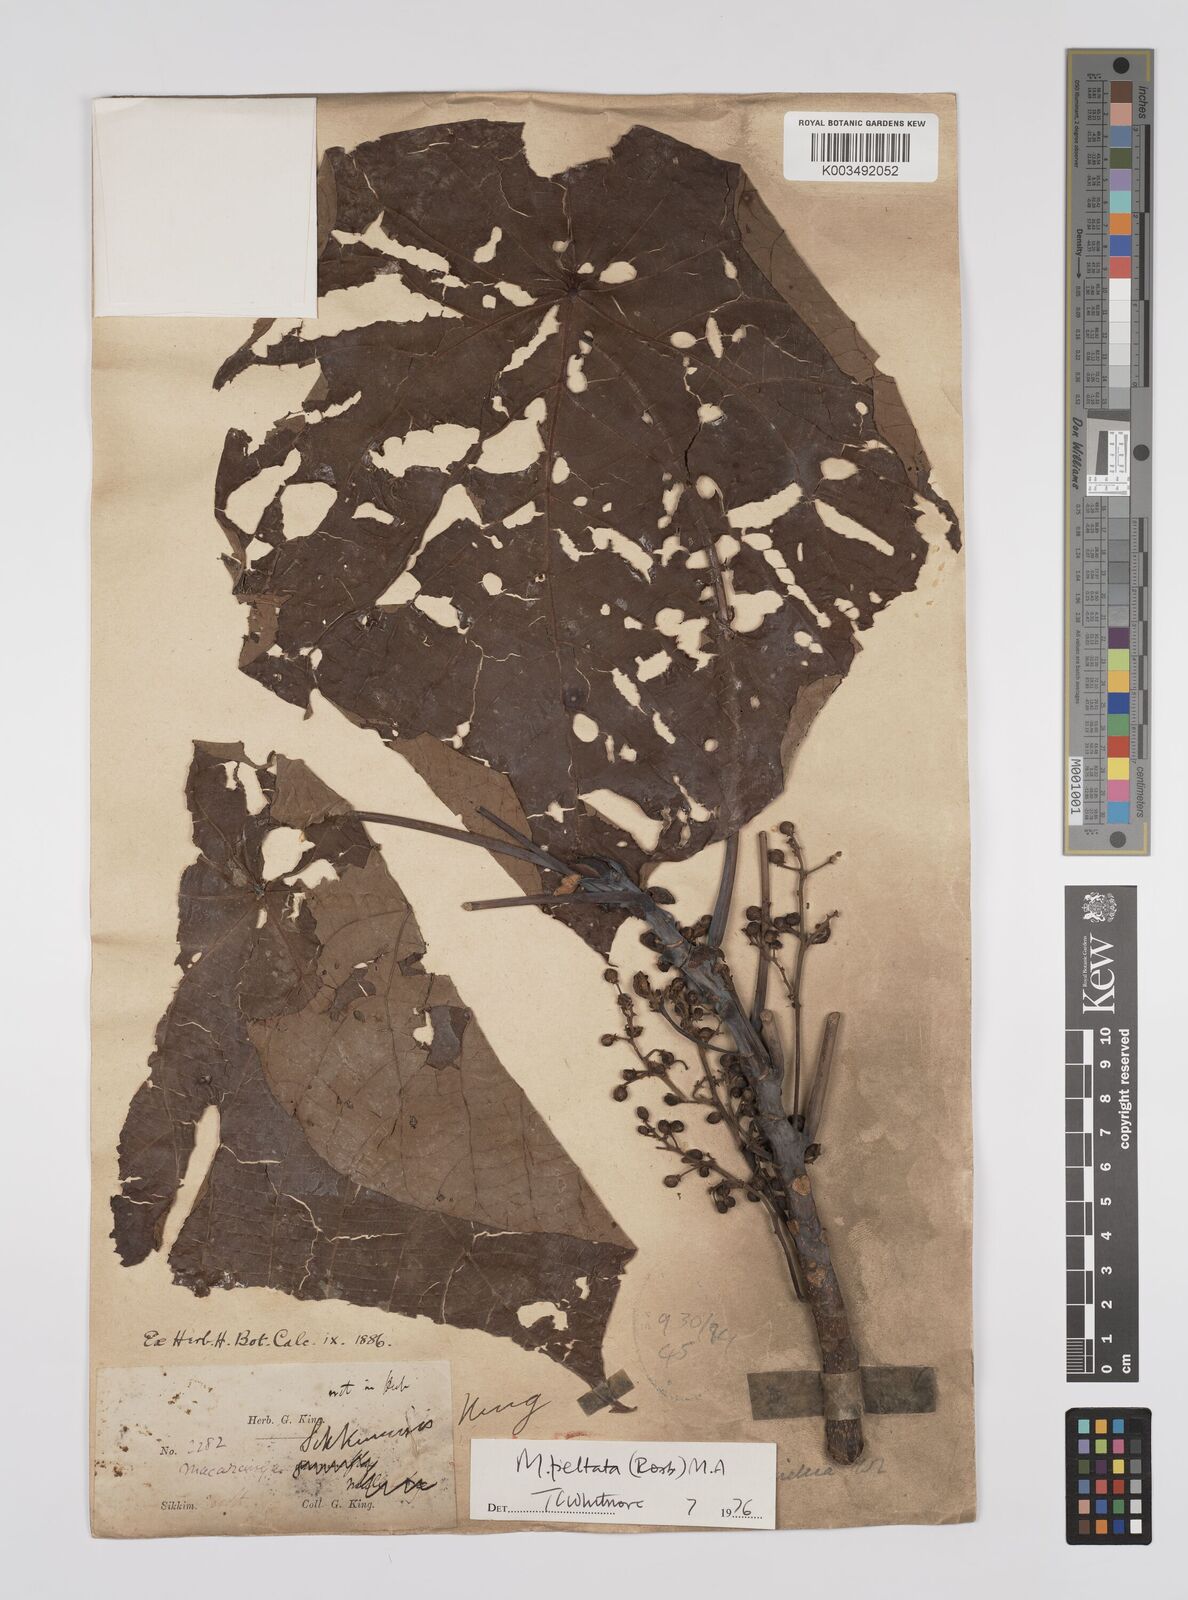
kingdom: Plantae
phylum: Tracheophyta
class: Magnoliopsida
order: Malpighiales
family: Euphorbiaceae
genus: Macaranga
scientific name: Macaranga peltata
